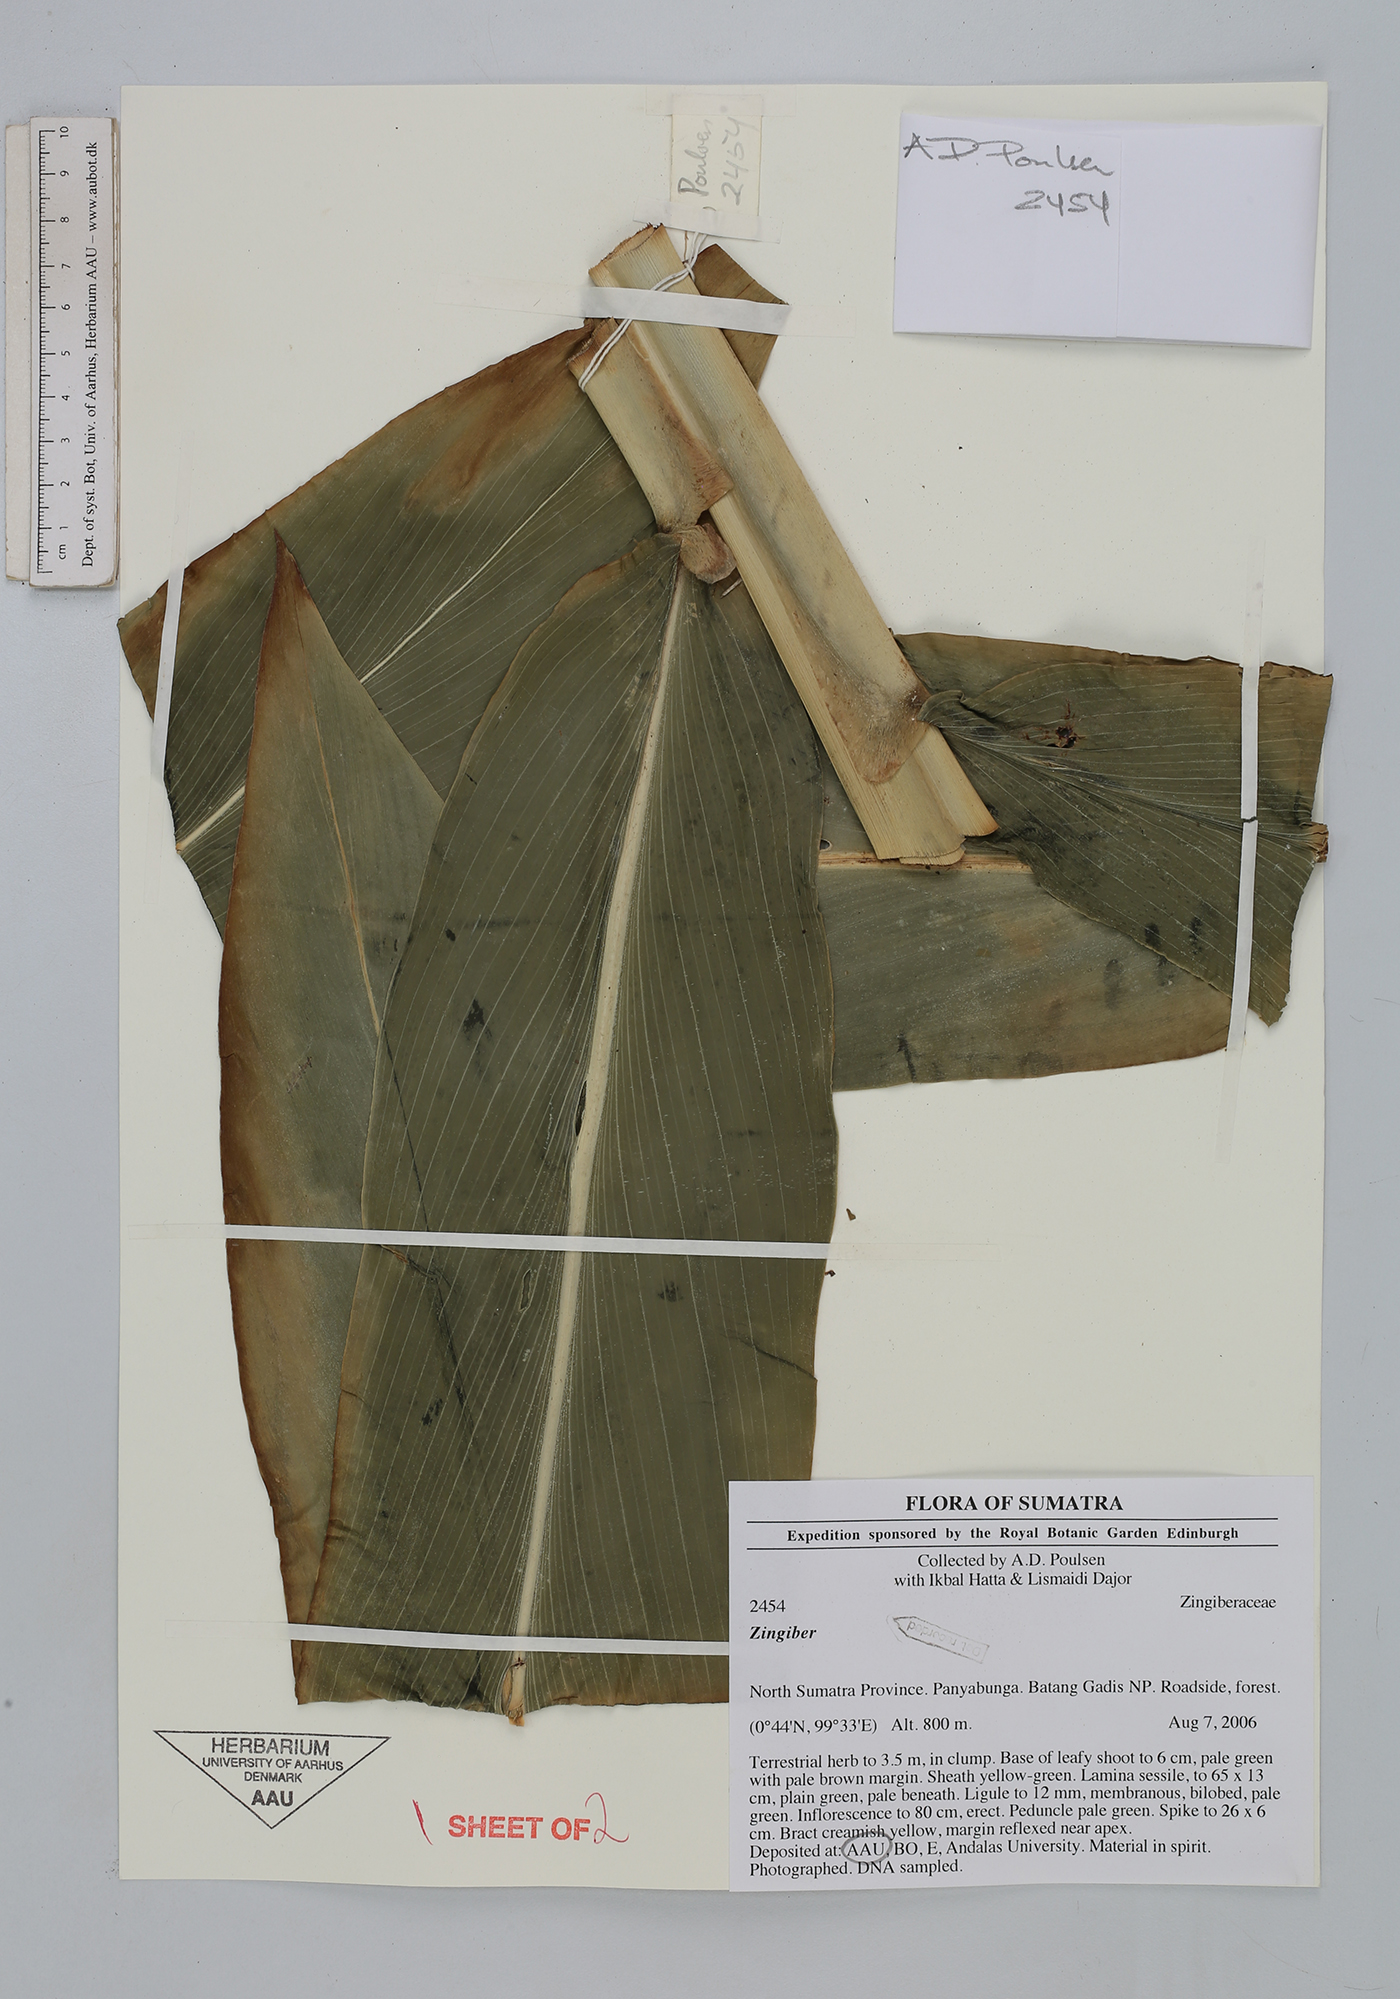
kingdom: Plantae
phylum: Tracheophyta
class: Liliopsida
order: Zingiberales
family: Zingiberaceae
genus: Zingiber
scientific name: Zingiber
